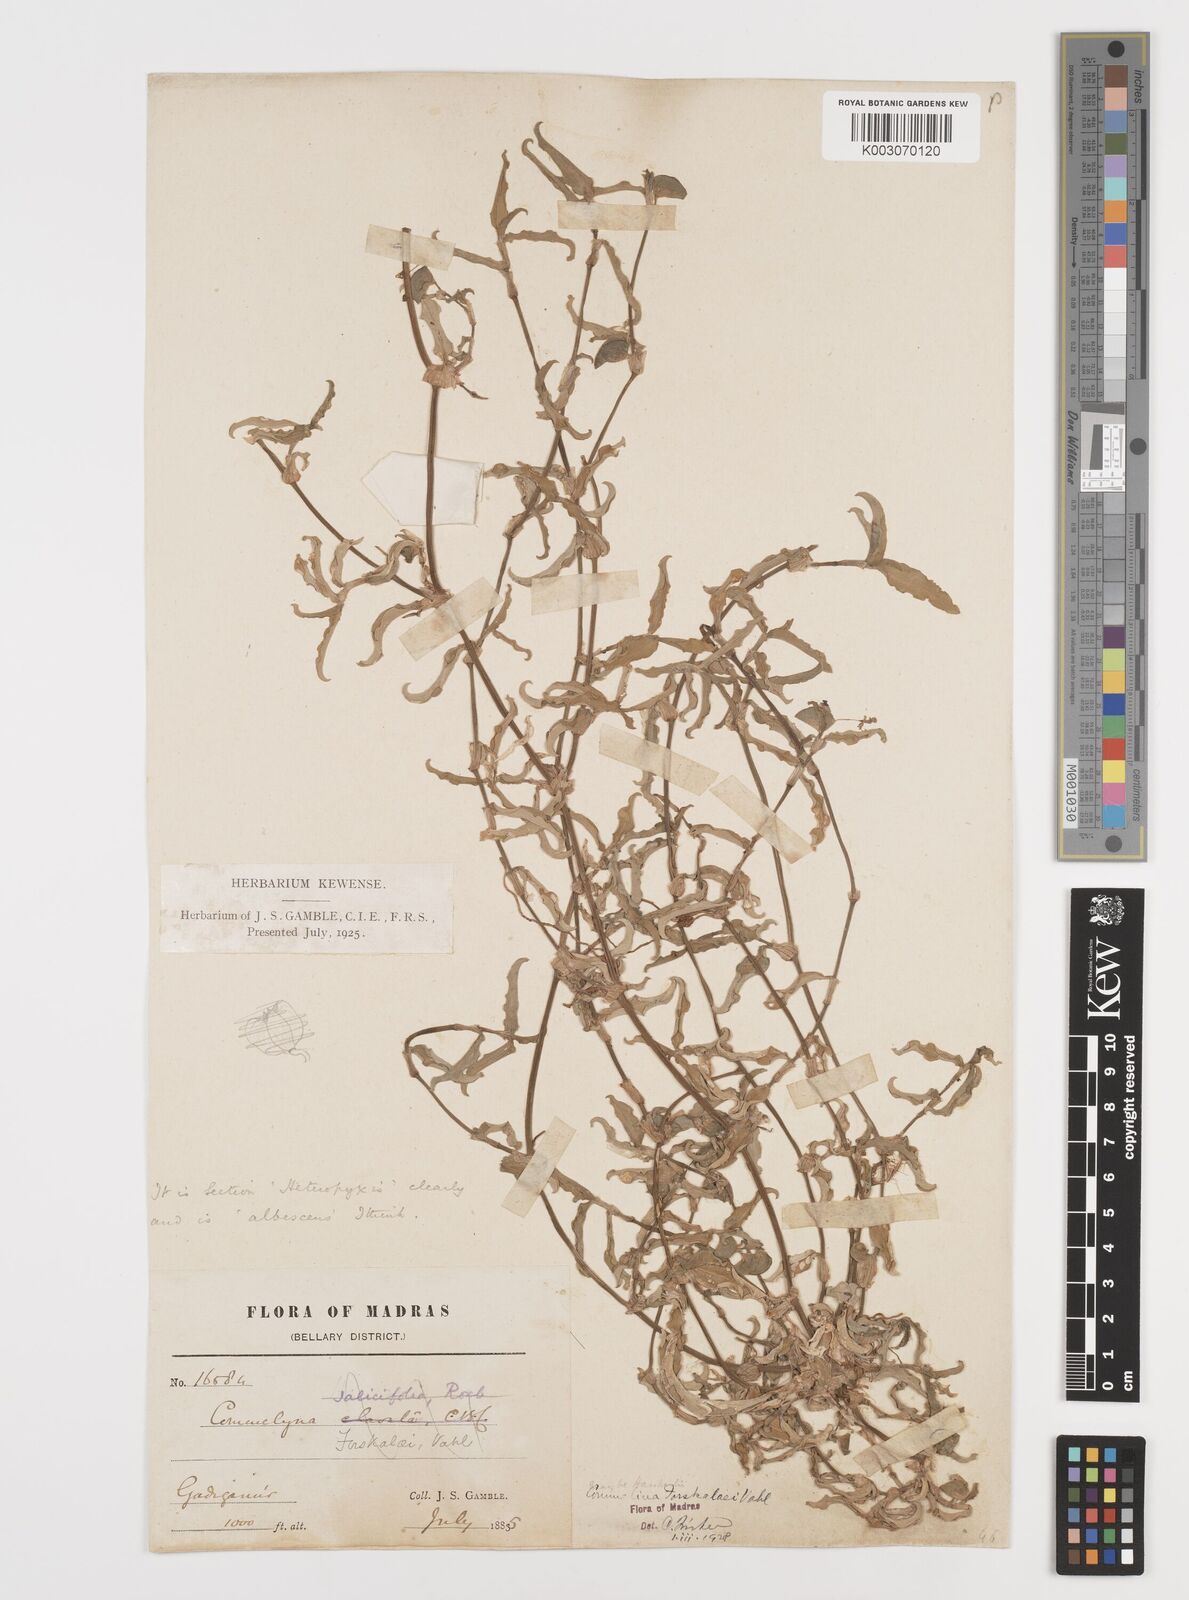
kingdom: Plantae
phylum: Tracheophyta
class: Liliopsida
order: Commelinales
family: Commelinaceae
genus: Commelina
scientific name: Commelina forskaolii
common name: Rat's ear
